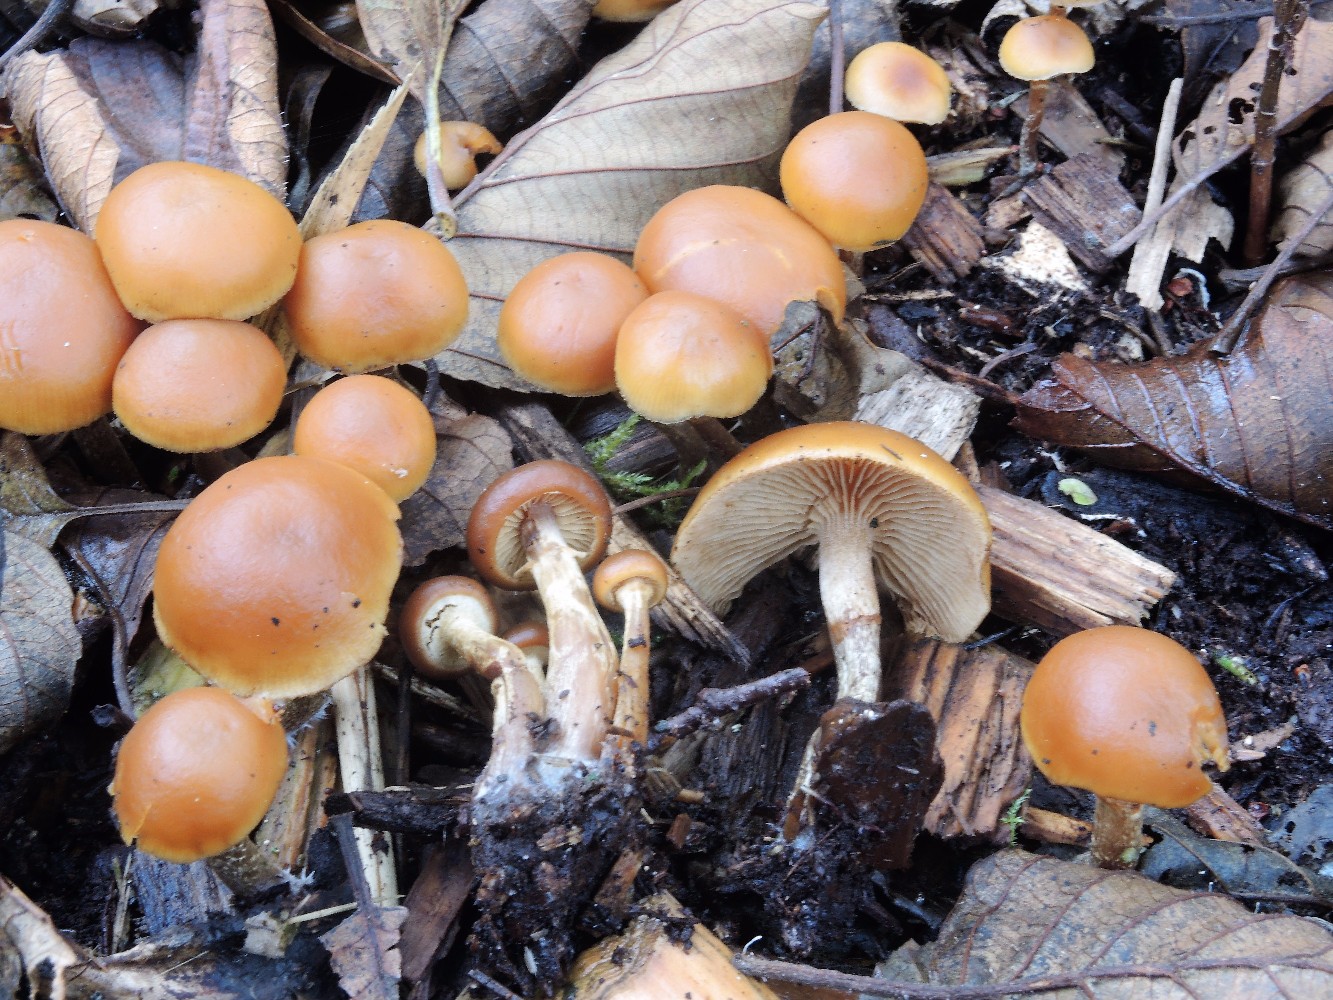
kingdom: Fungi
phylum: Basidiomycota
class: Agaricomycetes
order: Agaricales
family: Hymenogastraceae
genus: Galerina
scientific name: Galerina marginata
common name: randbæltet hjelmhat
